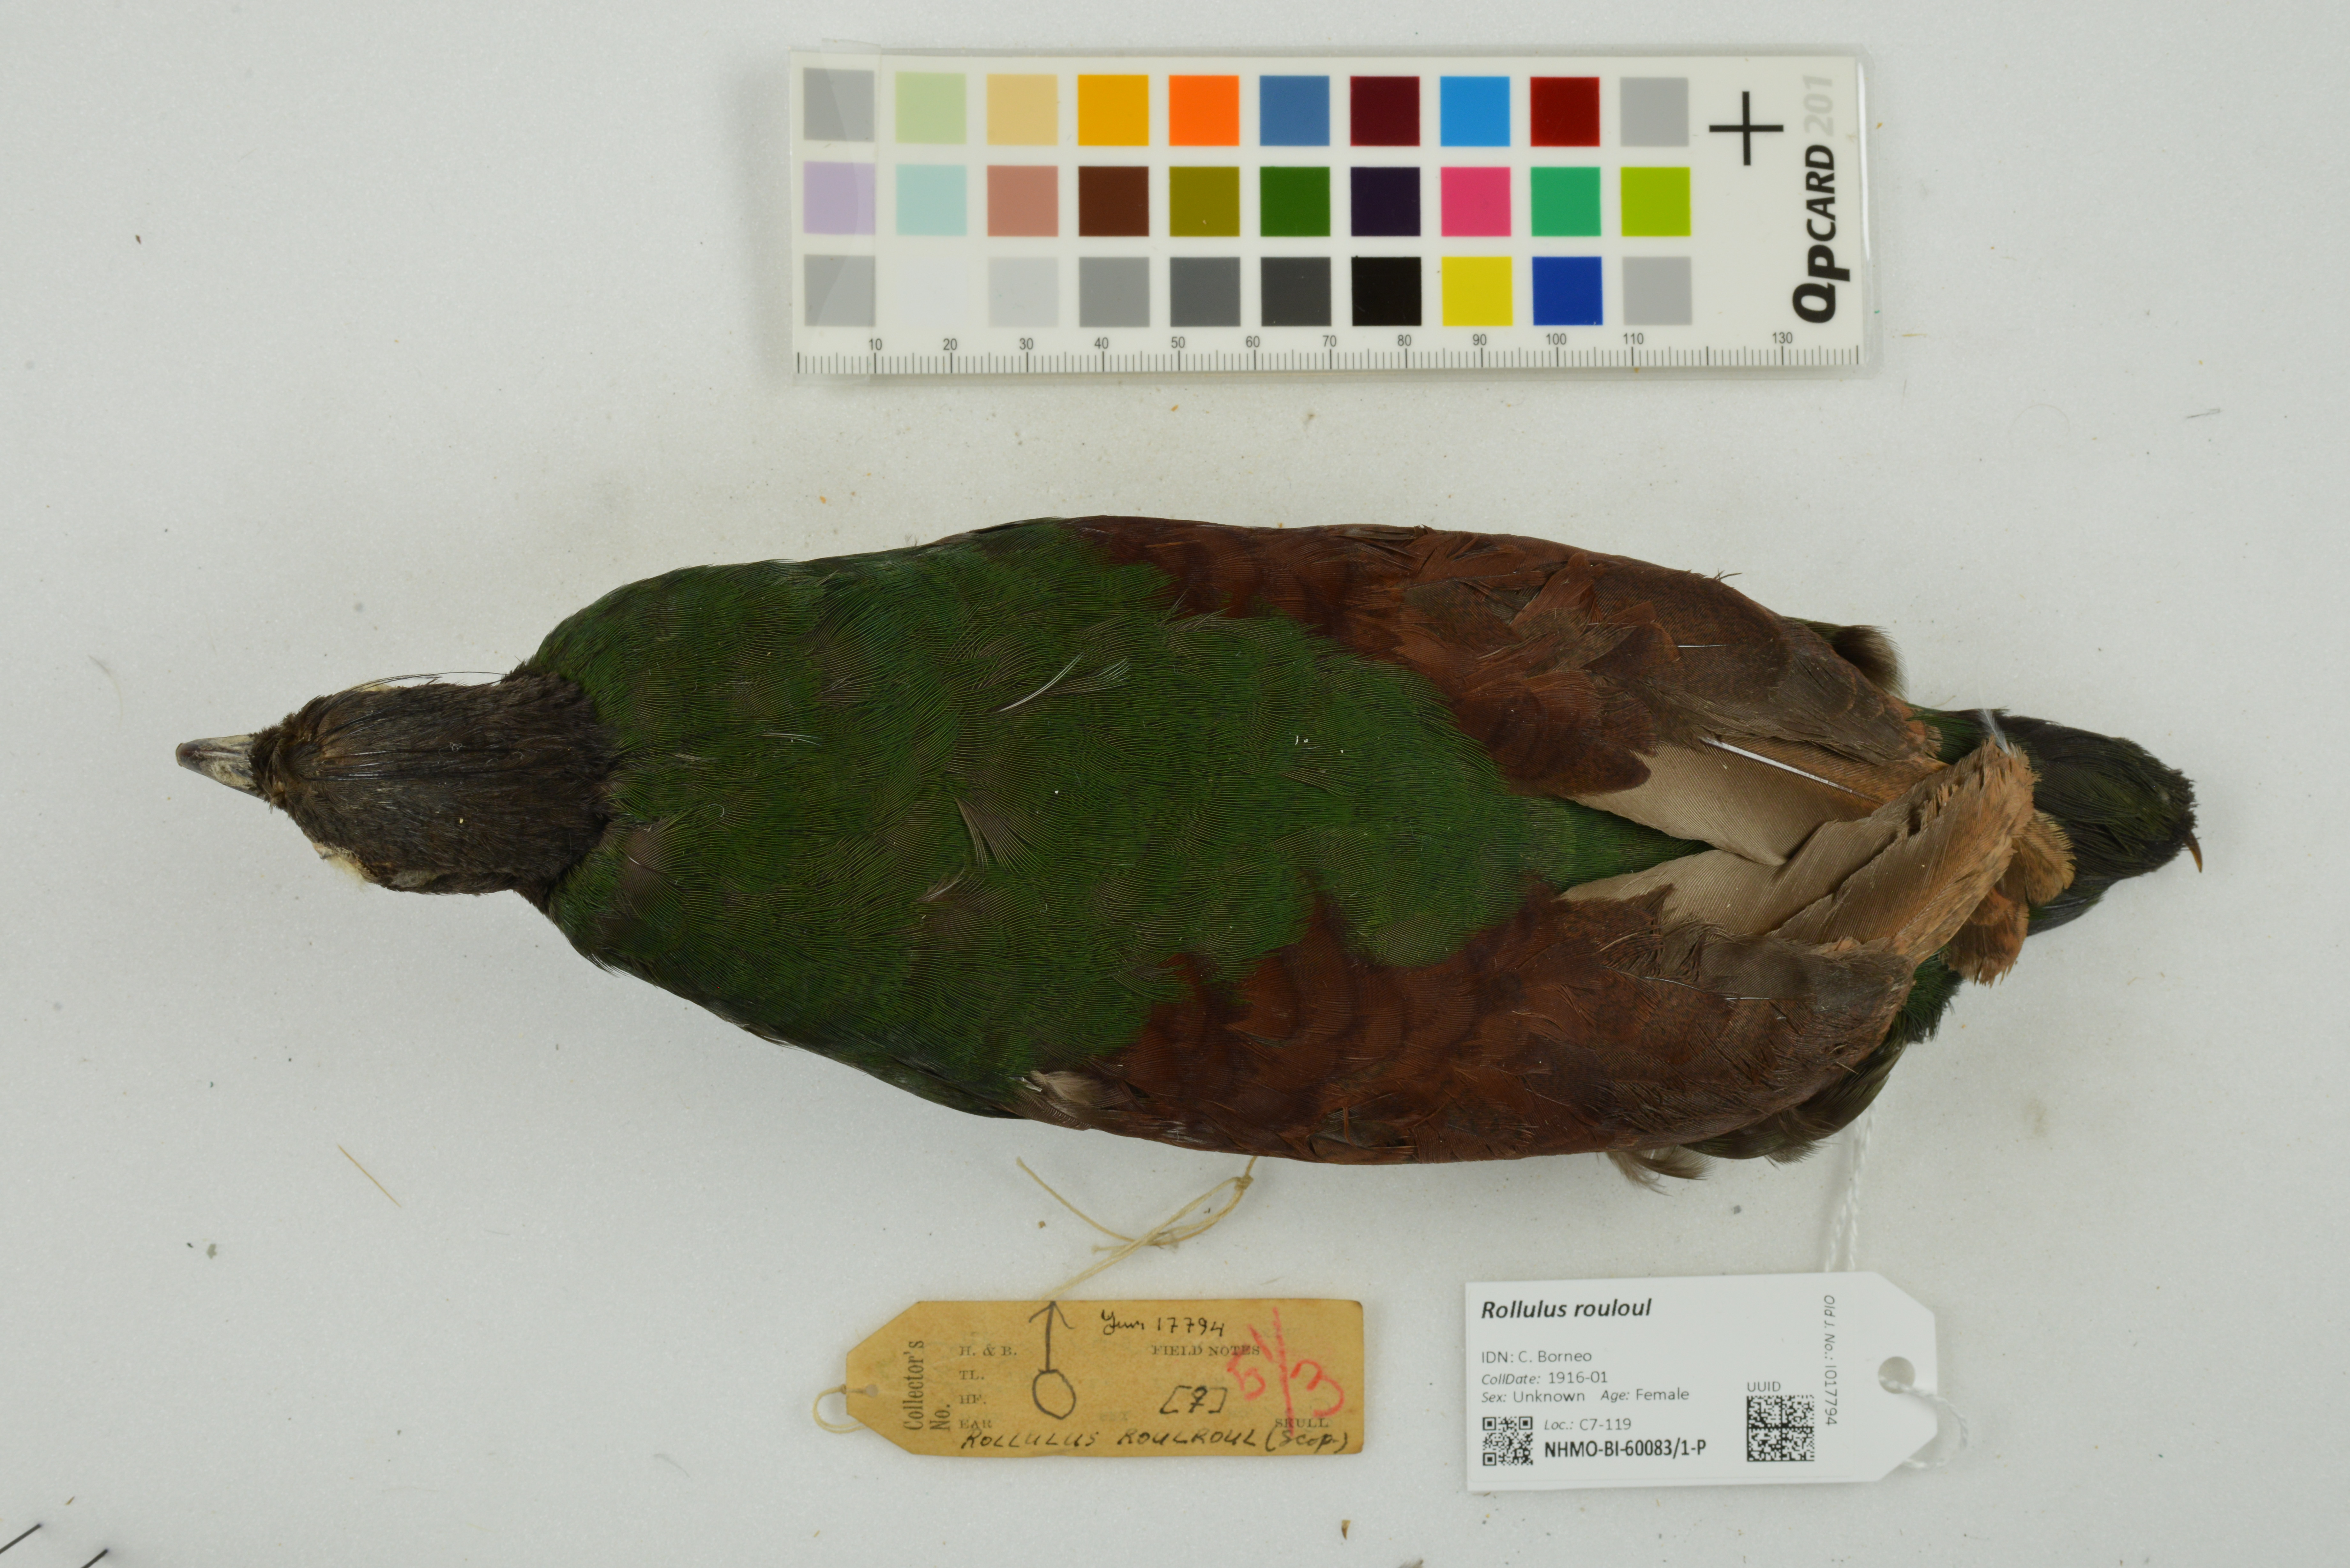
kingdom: Animalia
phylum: Chordata
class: Aves
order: Galliformes
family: Phasianidae
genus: Rollulus
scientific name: Rollulus rouloul
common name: Crested partridge
